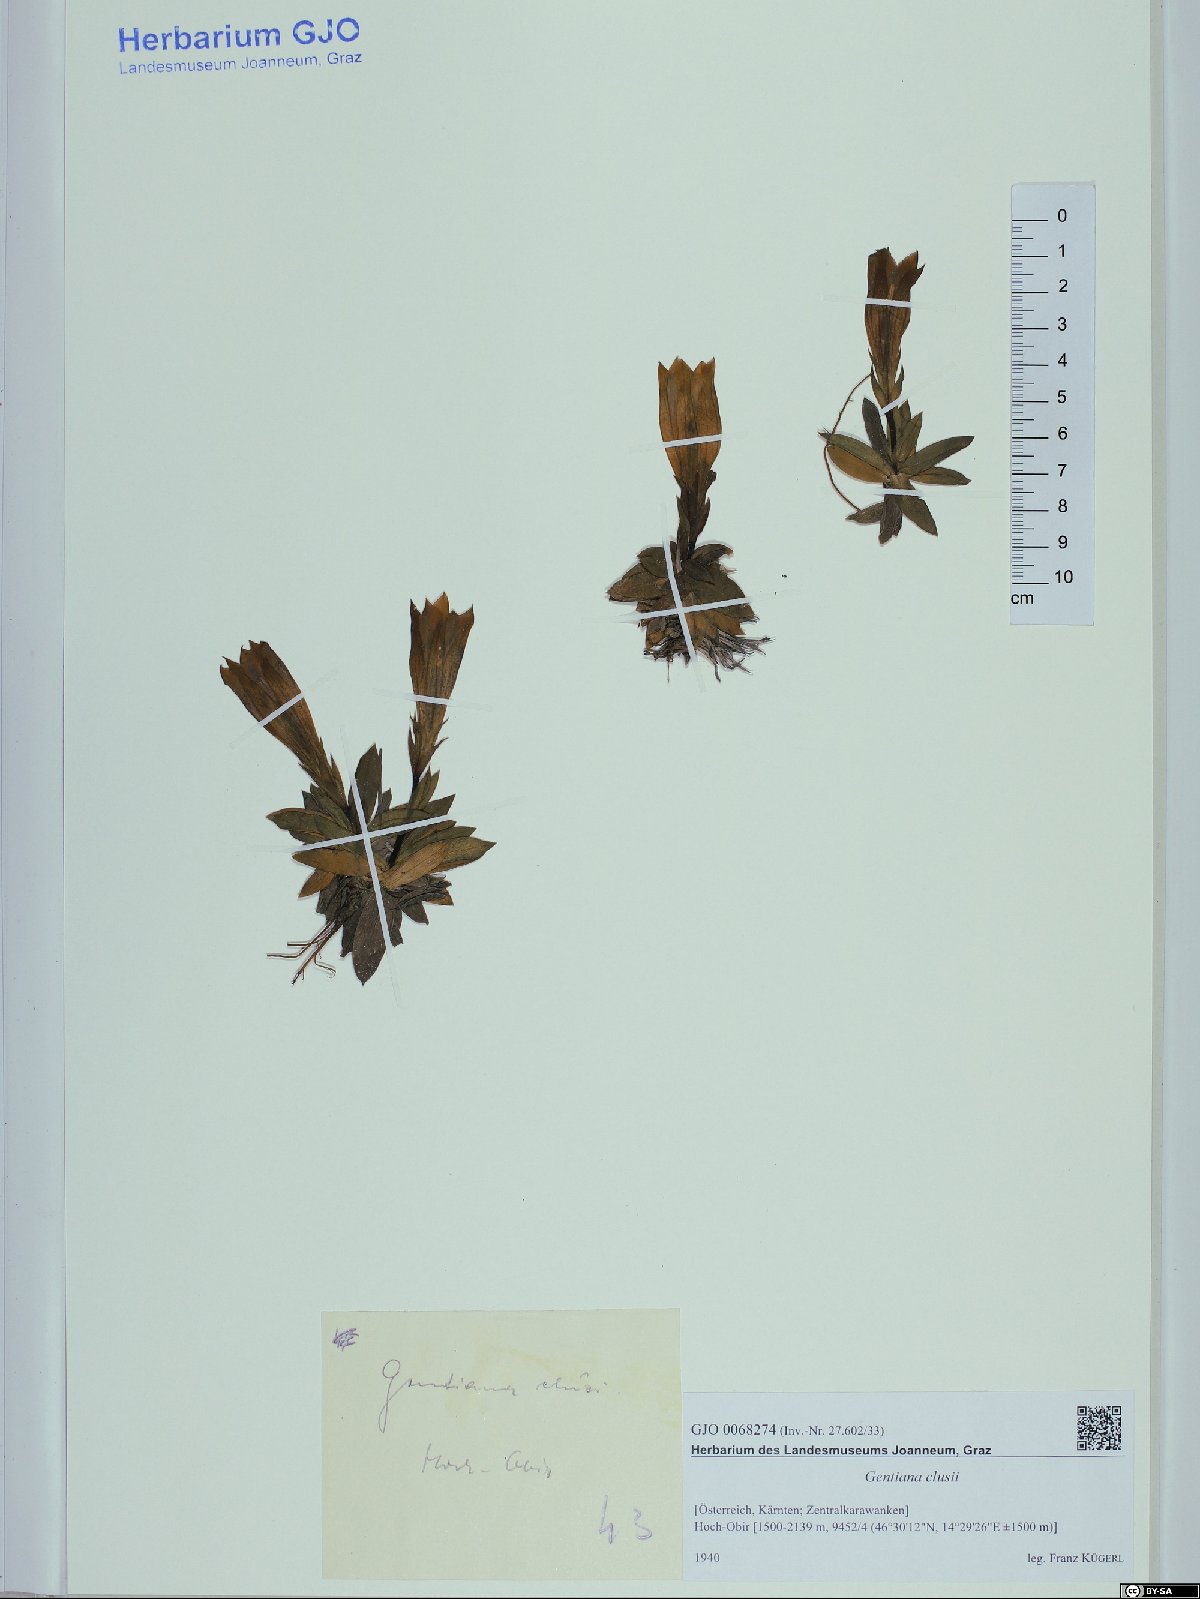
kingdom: Plantae
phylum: Tracheophyta
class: Magnoliopsida
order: Gentianales
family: Gentianaceae
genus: Gentiana
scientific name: Gentiana clusii
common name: Trumpet gentian
